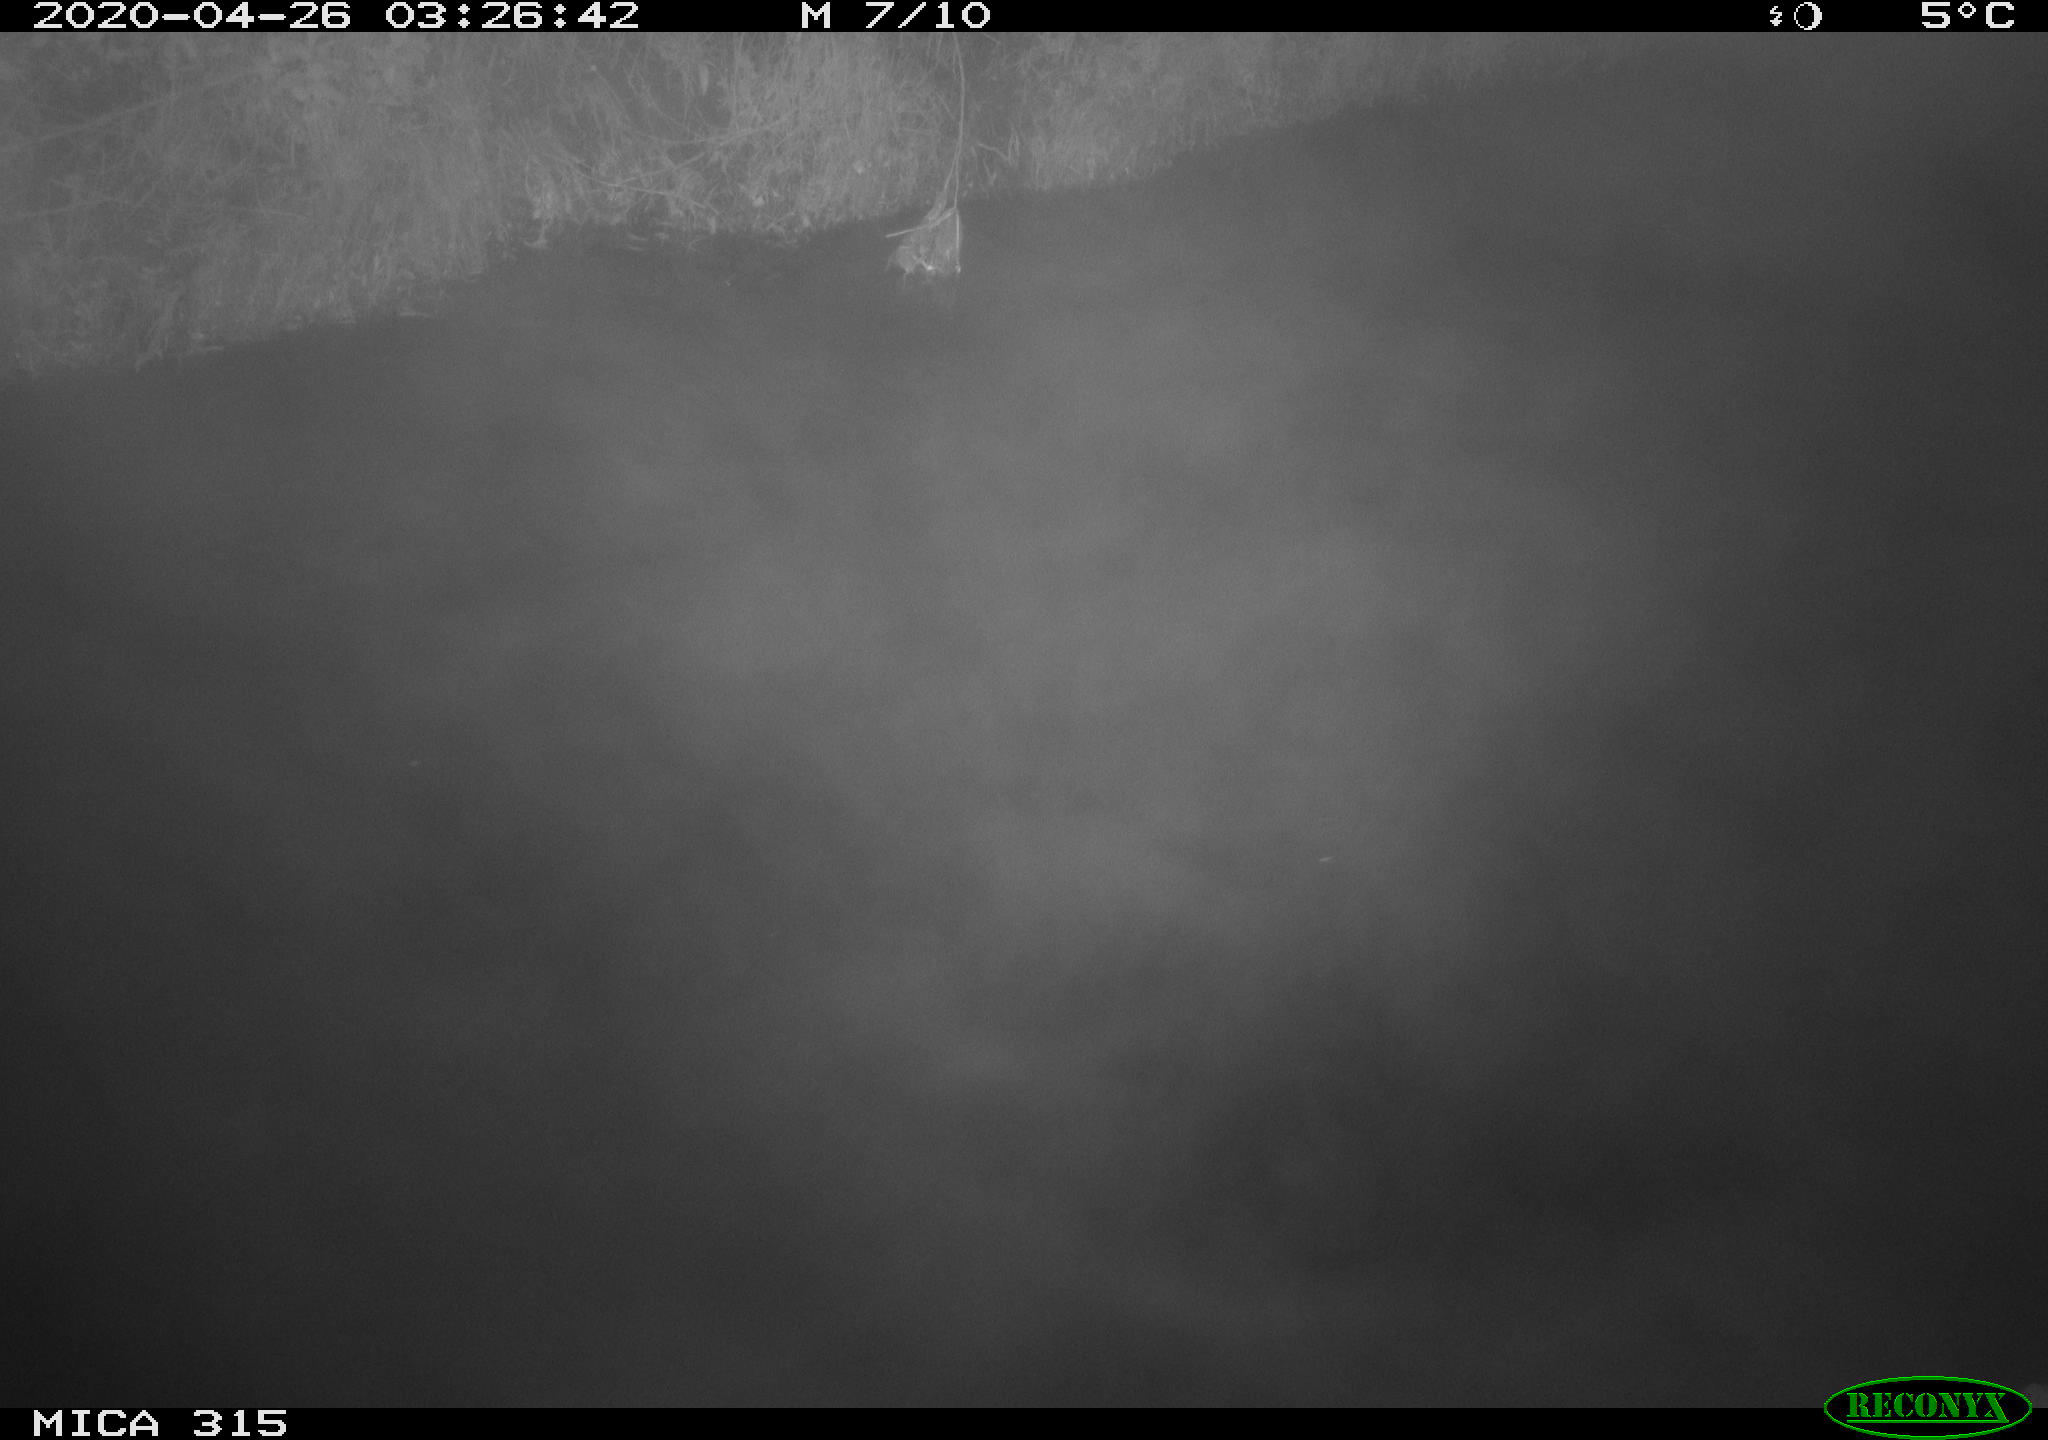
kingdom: Animalia
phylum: Chordata
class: Aves
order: Anseriformes
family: Anatidae
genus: Anas
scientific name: Anas platyrhynchos
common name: Mallard
